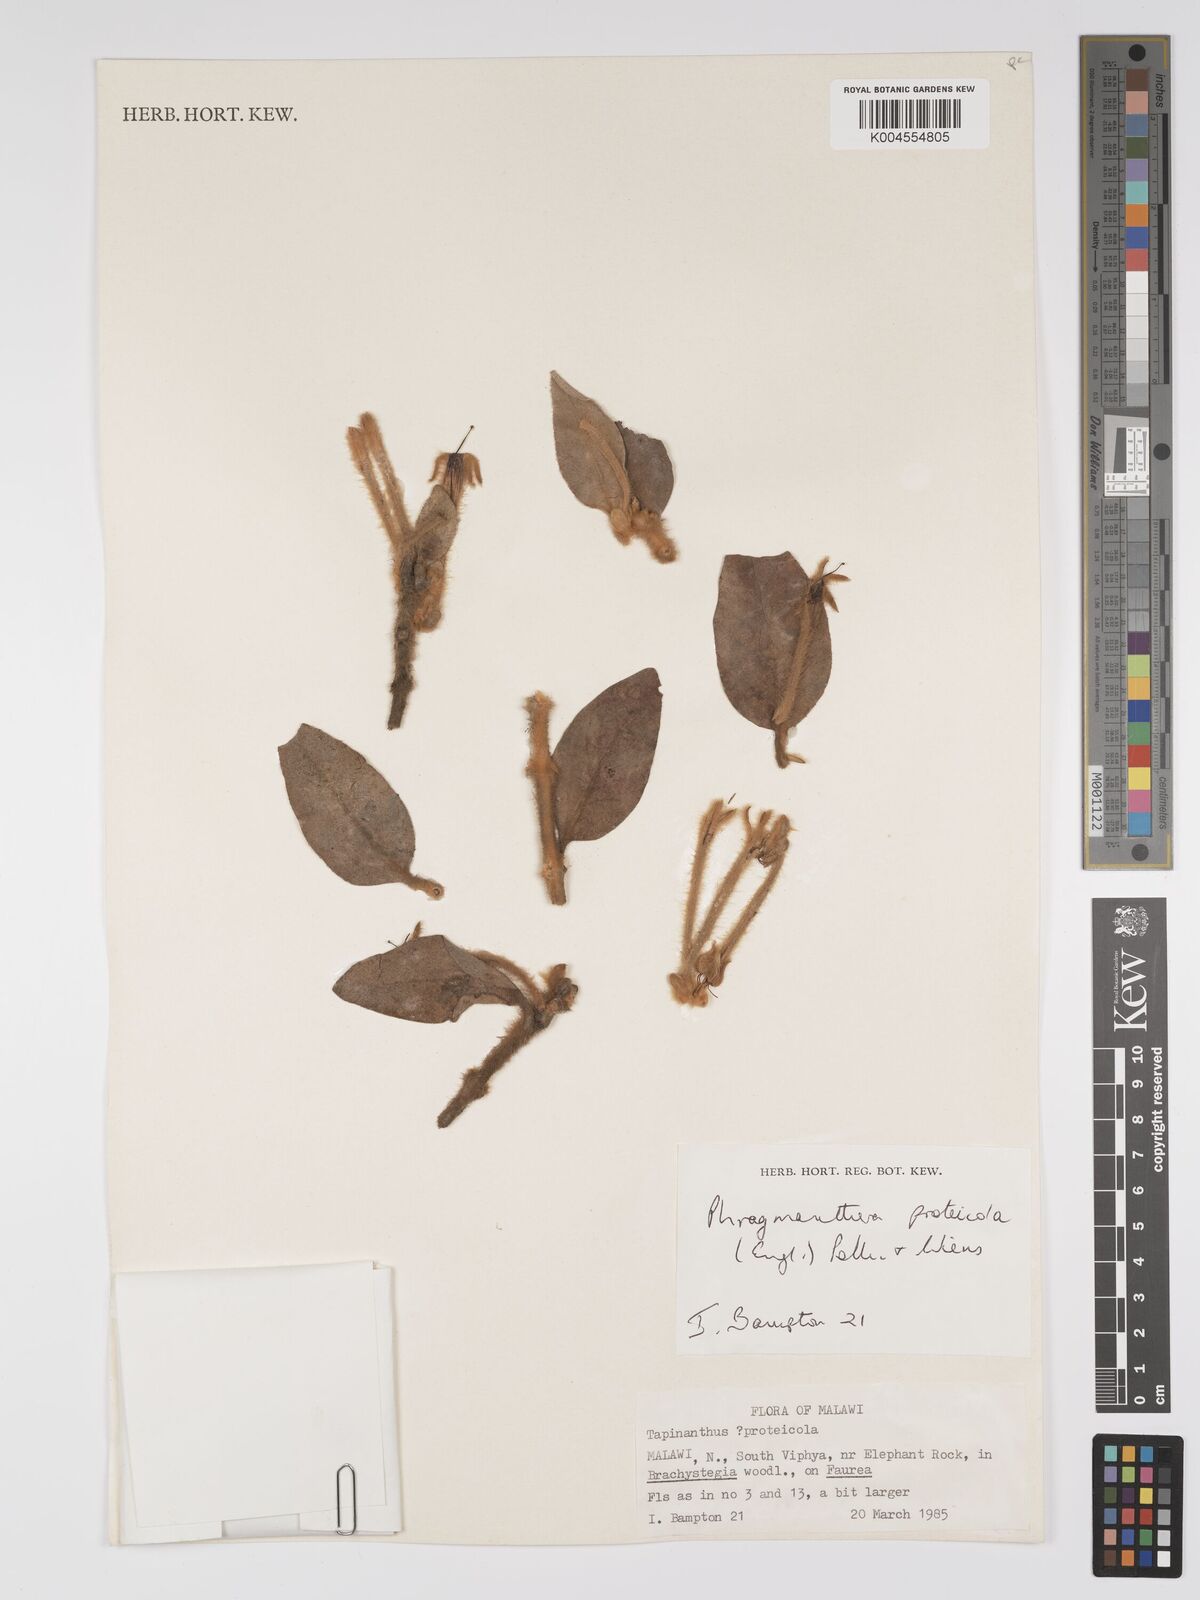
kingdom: Plantae
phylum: Tracheophyta
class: Magnoliopsida
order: Santalales
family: Loranthaceae
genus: Phragmanthera
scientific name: Phragmanthera proteicola
